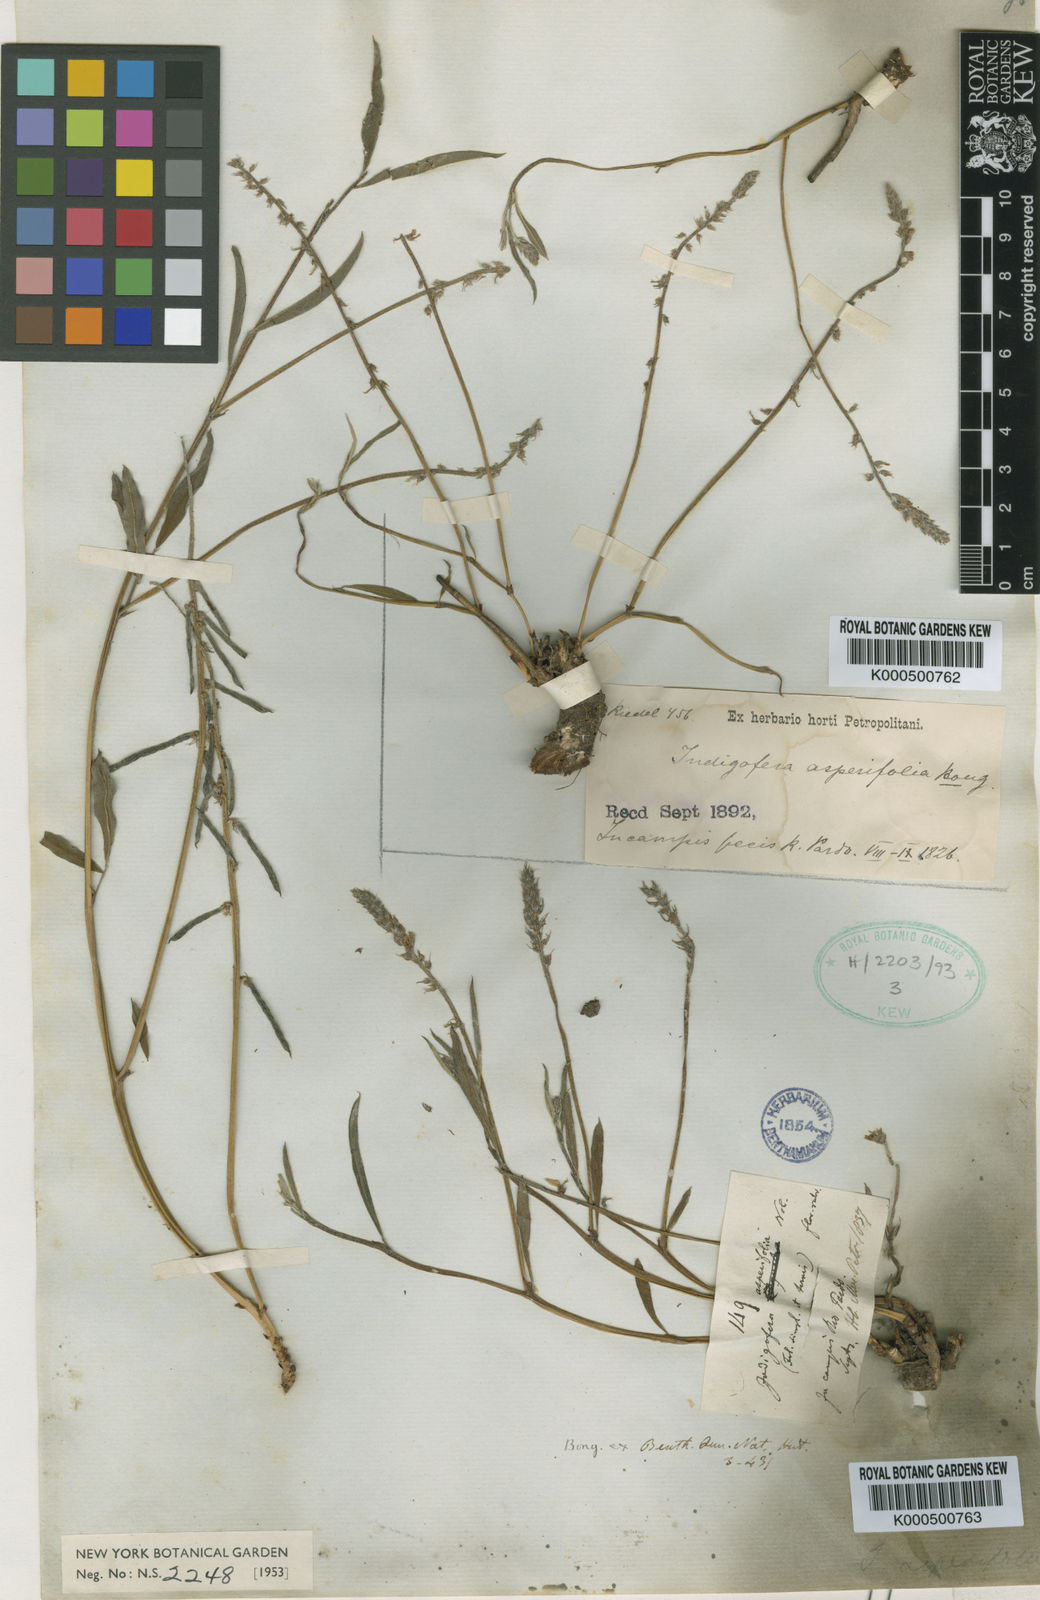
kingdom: Plantae
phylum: Tracheophyta
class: Magnoliopsida
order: Fabales
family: Fabaceae
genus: Indigofera
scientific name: Indigofera asperifolia
